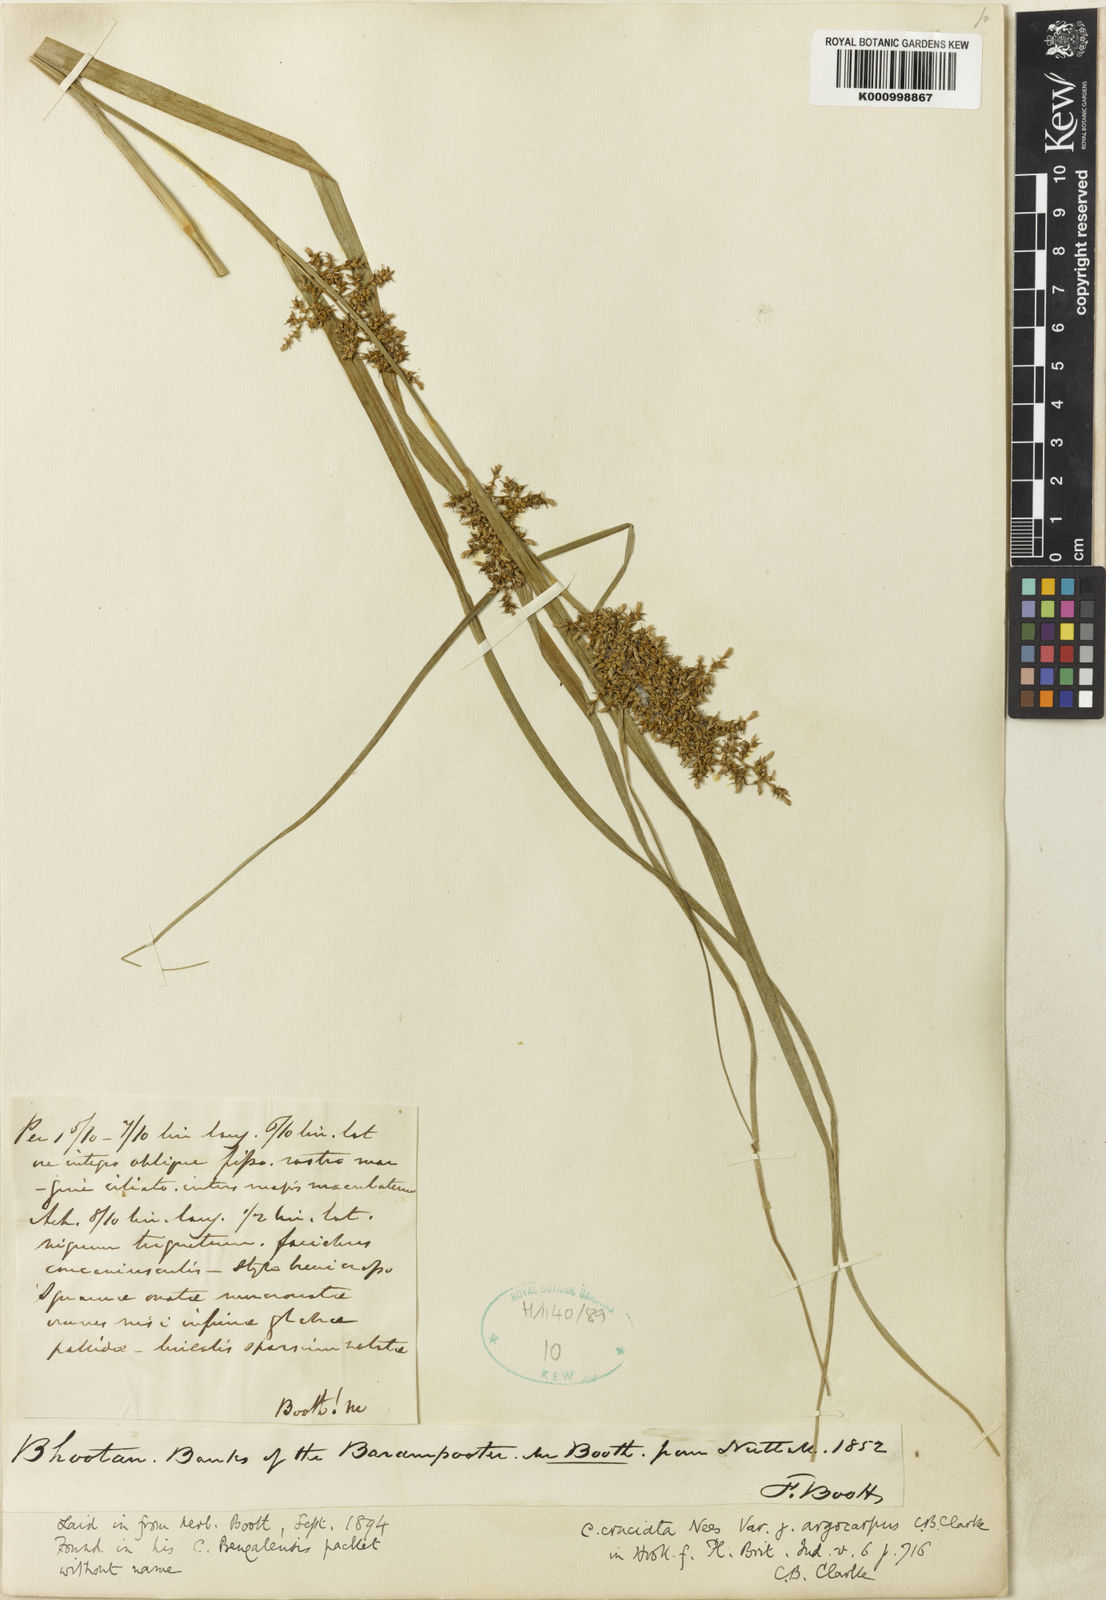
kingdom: Plantae
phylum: Tracheophyta
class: Liliopsida
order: Poales
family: Cyperaceae
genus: Carex
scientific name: Carex cruciata
